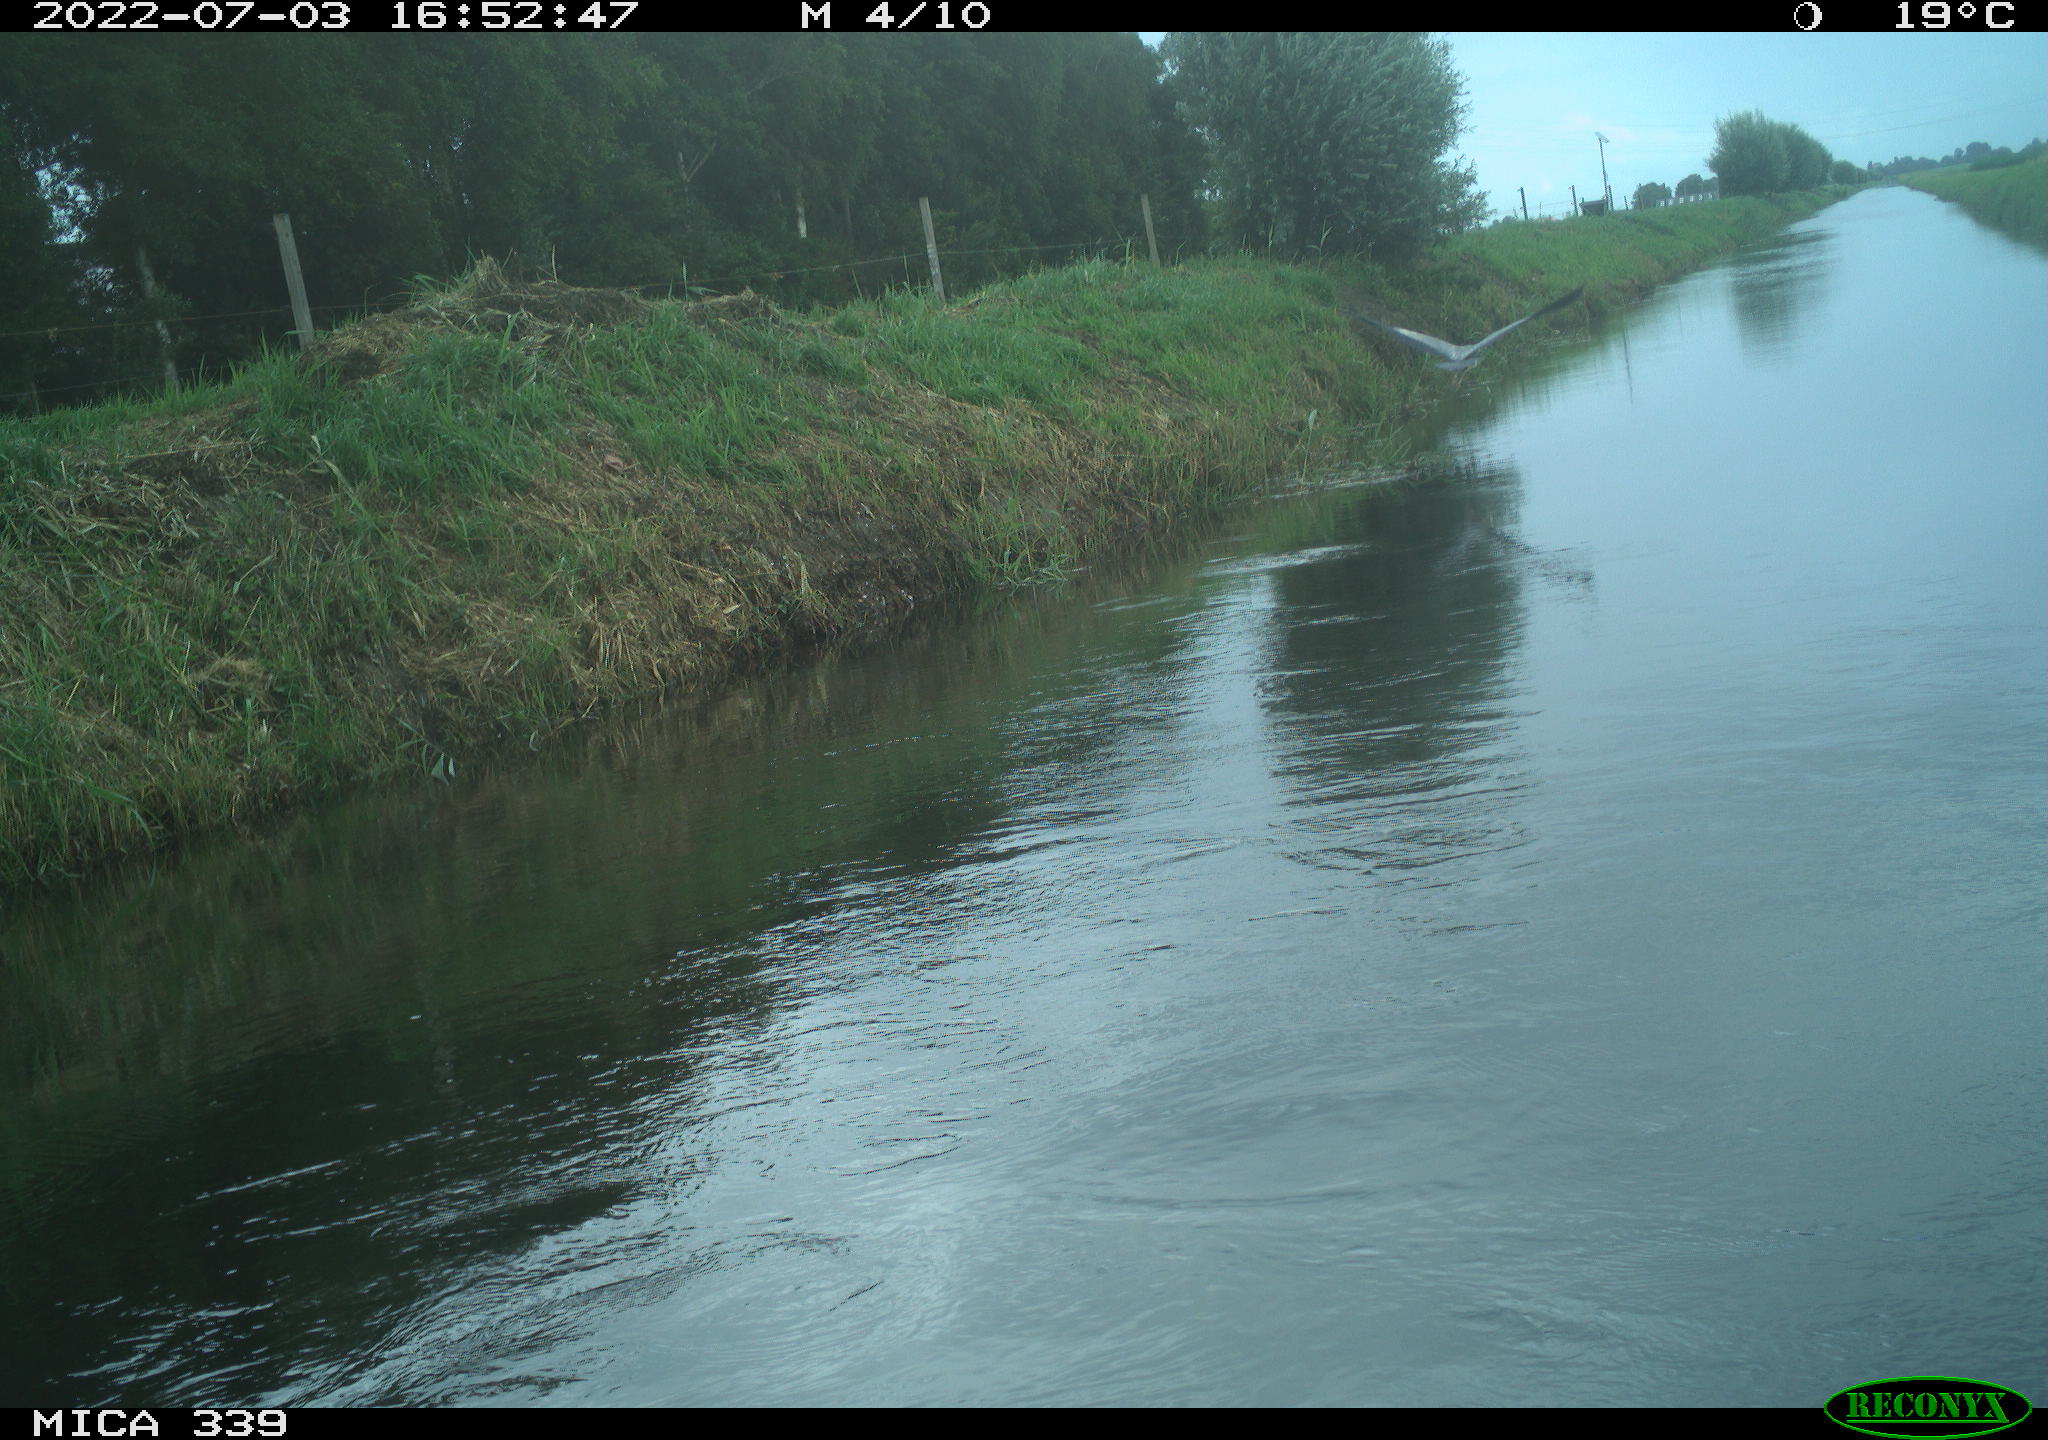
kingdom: Animalia
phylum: Chordata
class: Aves
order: Pelecaniformes
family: Ardeidae
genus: Ardea
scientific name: Ardea cinerea
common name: Grey heron
